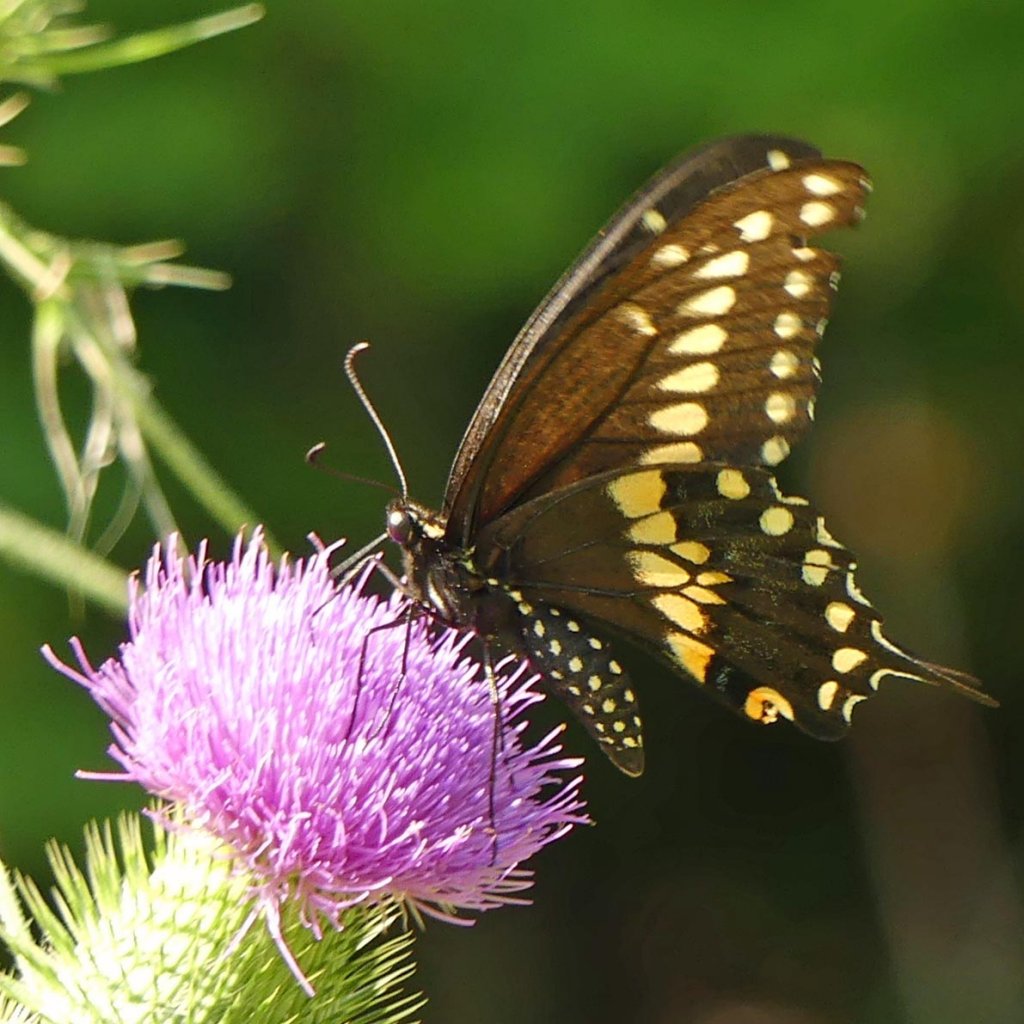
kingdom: Animalia
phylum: Arthropoda
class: Insecta
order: Lepidoptera
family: Papilionidae
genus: Papilio
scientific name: Papilio polyxenes
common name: Black Swallowtail
